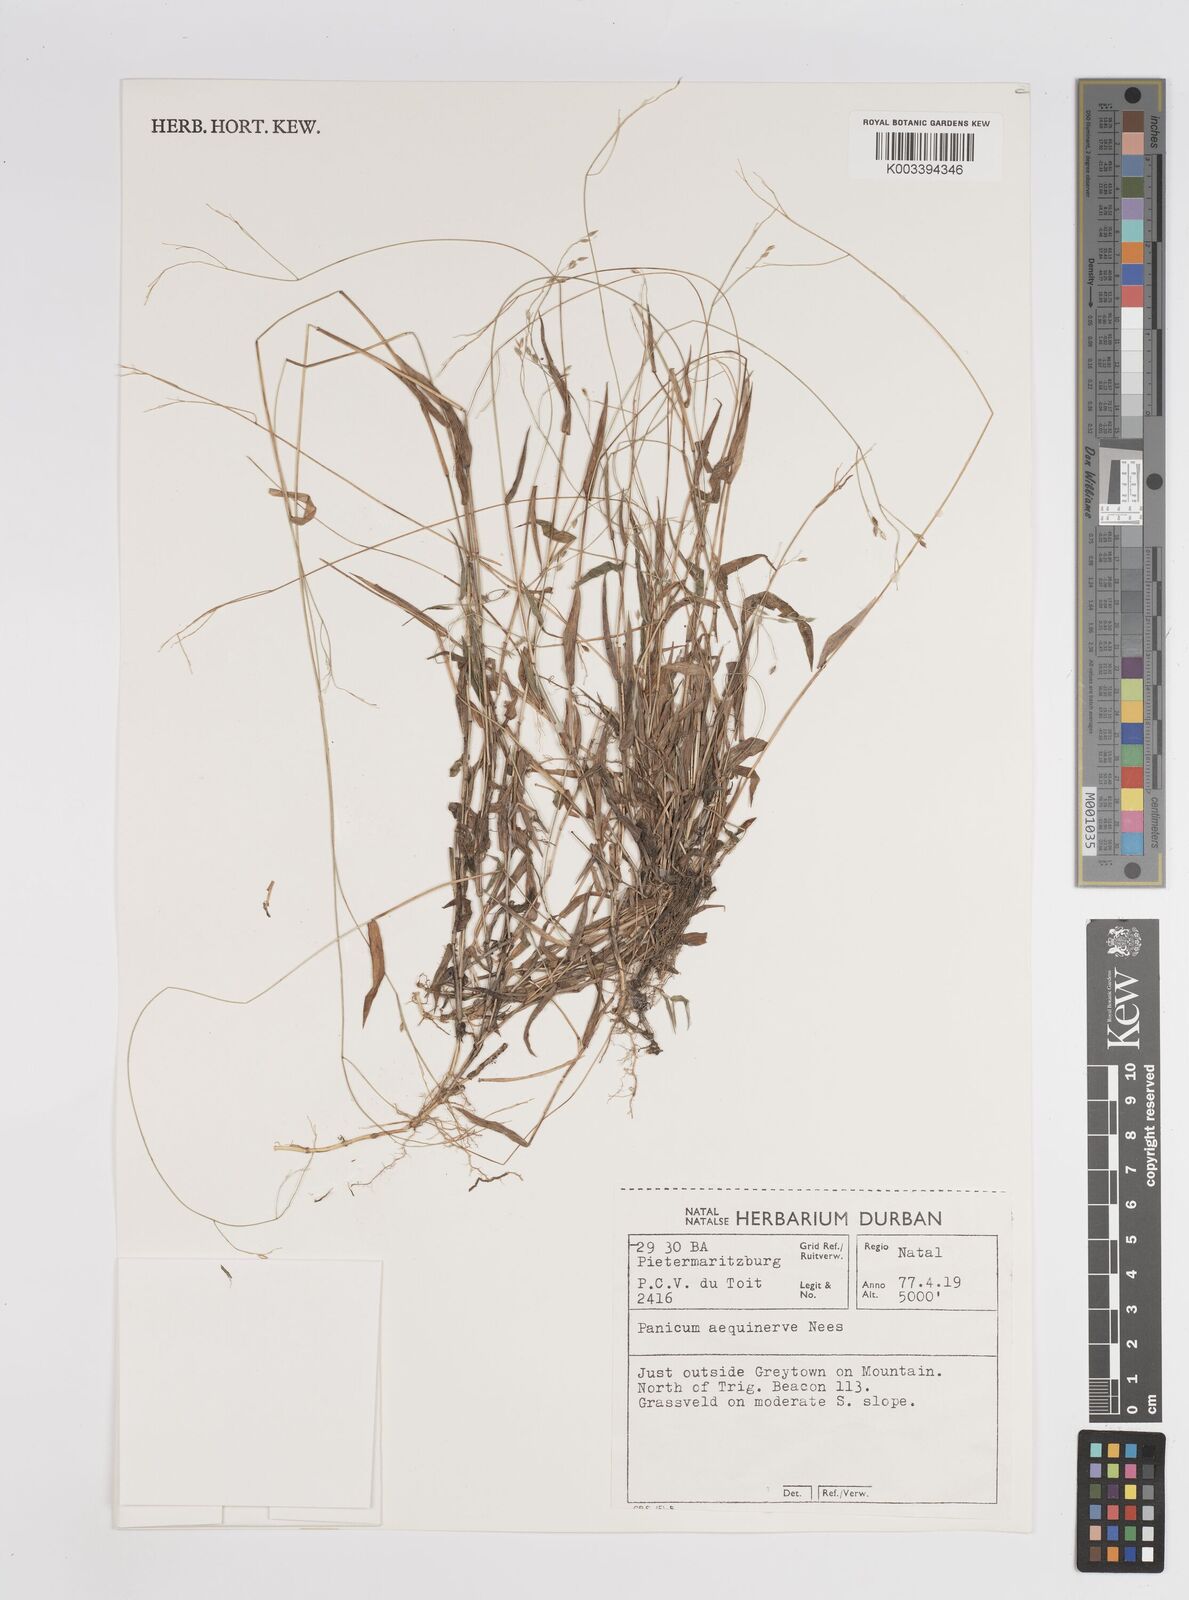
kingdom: Plantae
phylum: Tracheophyta
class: Liliopsida
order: Poales
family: Poaceae
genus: Panicum
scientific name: Panicum aequinerve
